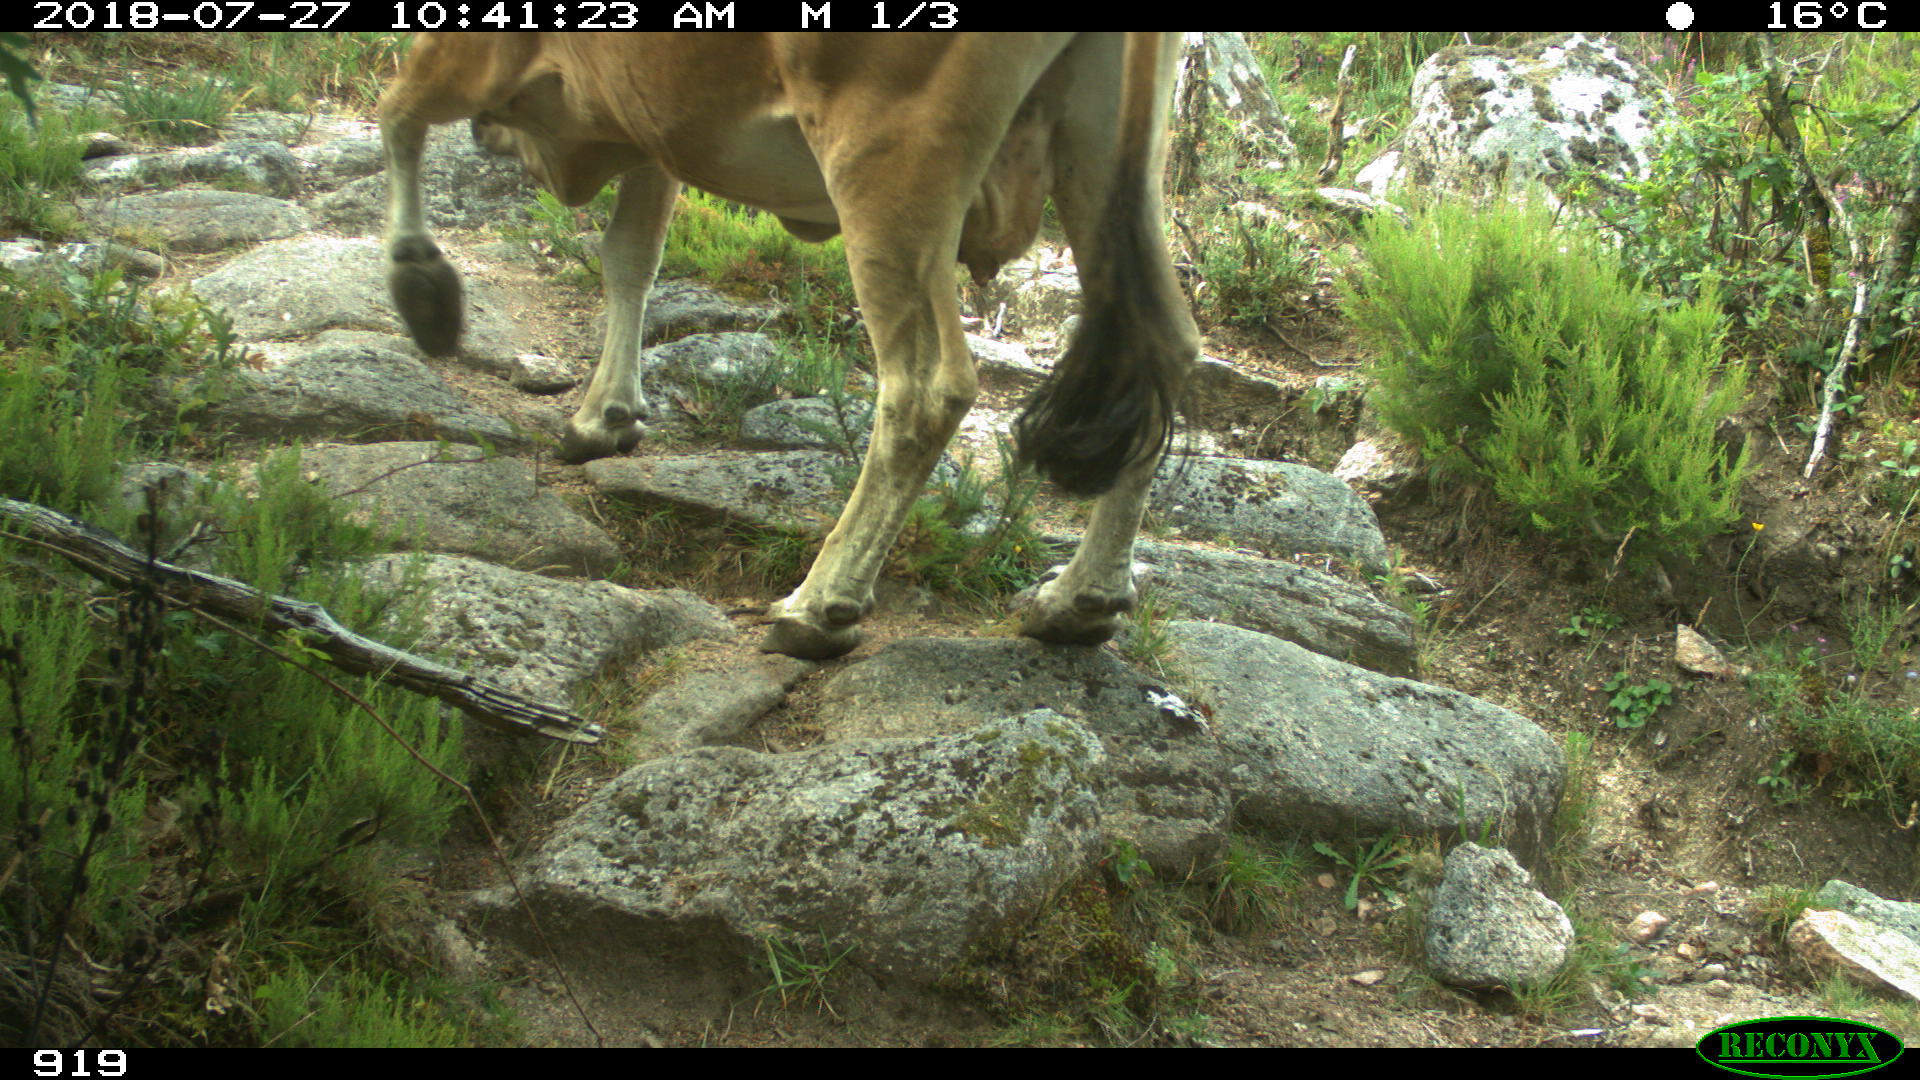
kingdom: Animalia
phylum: Chordata
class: Mammalia
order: Artiodactyla
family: Bovidae
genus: Bos
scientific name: Bos taurus
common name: Domesticated cattle
